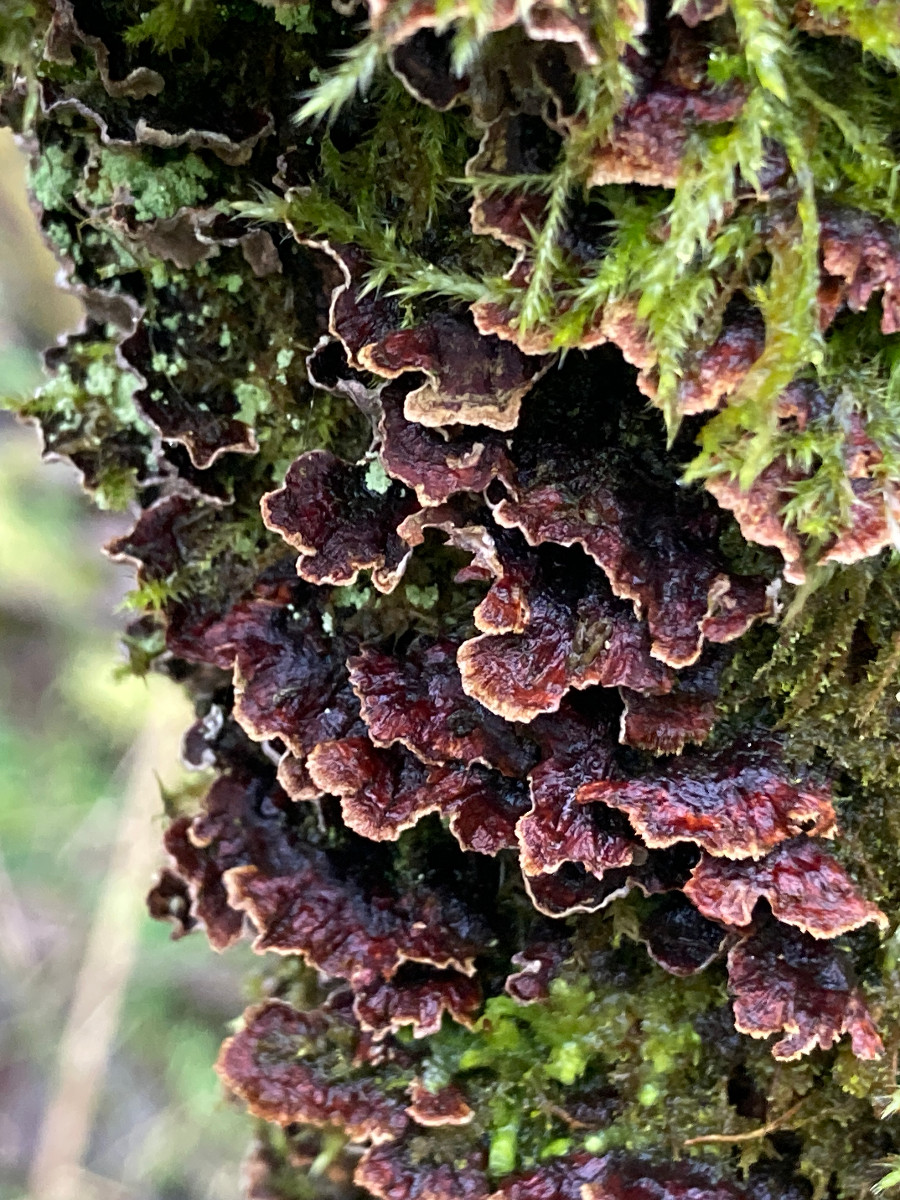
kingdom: Fungi
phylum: Basidiomycota
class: Agaricomycetes
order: Hymenochaetales
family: Hymenochaetaceae
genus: Hydnoporia
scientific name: Hydnoporia tabacina
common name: tobaksbrun ruslædersvamp
